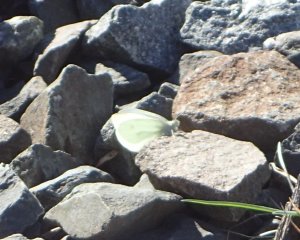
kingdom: Animalia
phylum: Arthropoda
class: Insecta
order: Lepidoptera
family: Pieridae
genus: Pieris
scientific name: Pieris rapae
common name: Cabbage White
